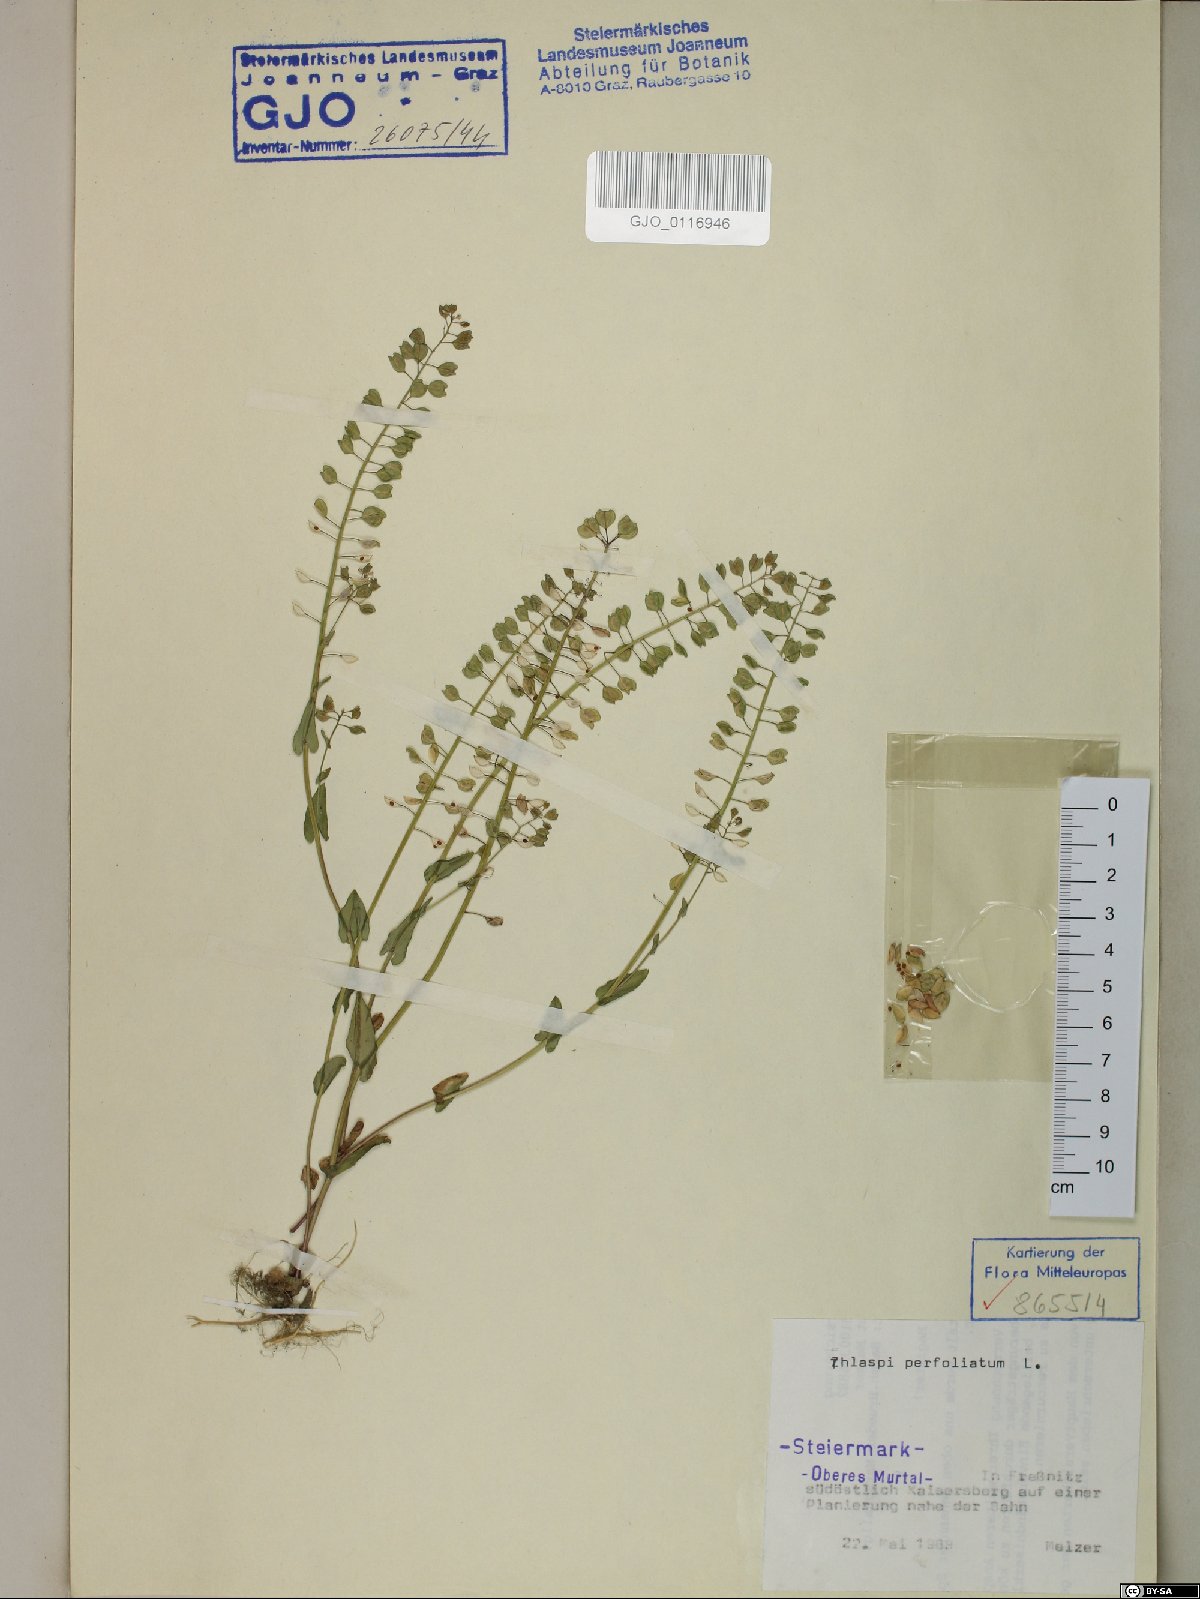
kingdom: Plantae
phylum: Tracheophyta
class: Magnoliopsida
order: Brassicales
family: Brassicaceae
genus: Noccaea
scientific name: Noccaea perfoliata
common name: Perfoliate pennycress
